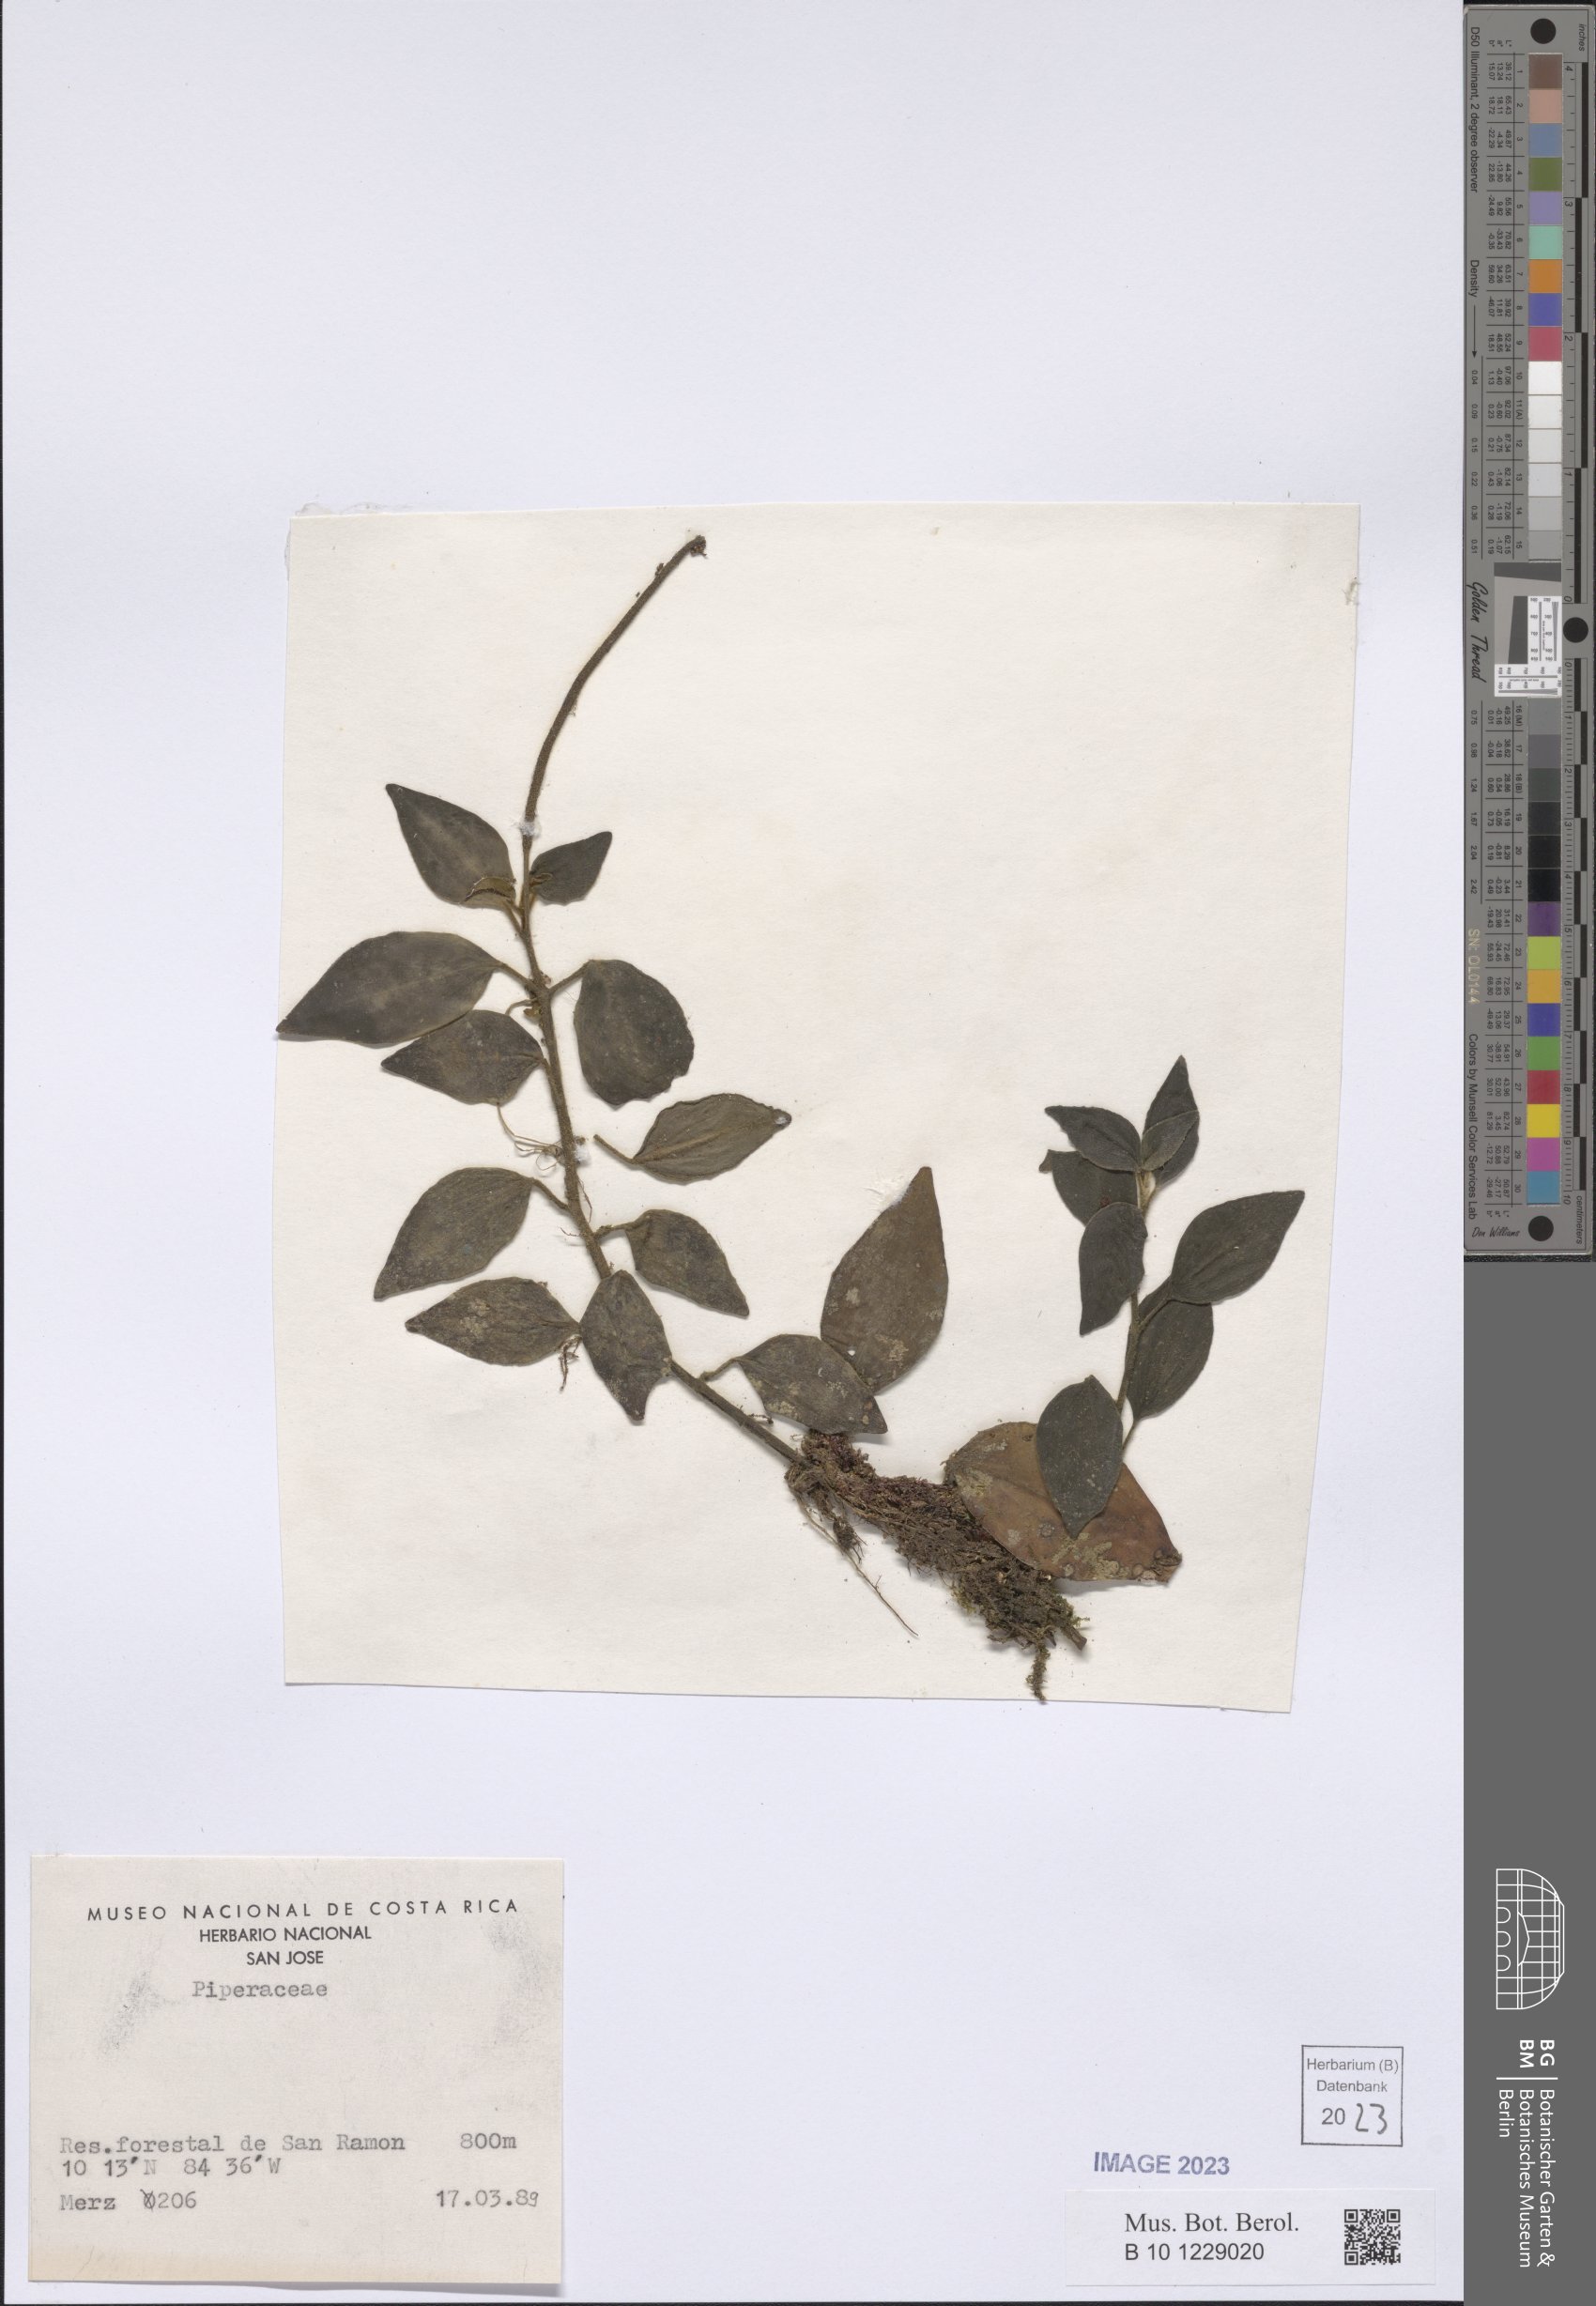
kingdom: Plantae
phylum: Tracheophyta
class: Magnoliopsida
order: Piperales
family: Piperaceae
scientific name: Piperaceae
